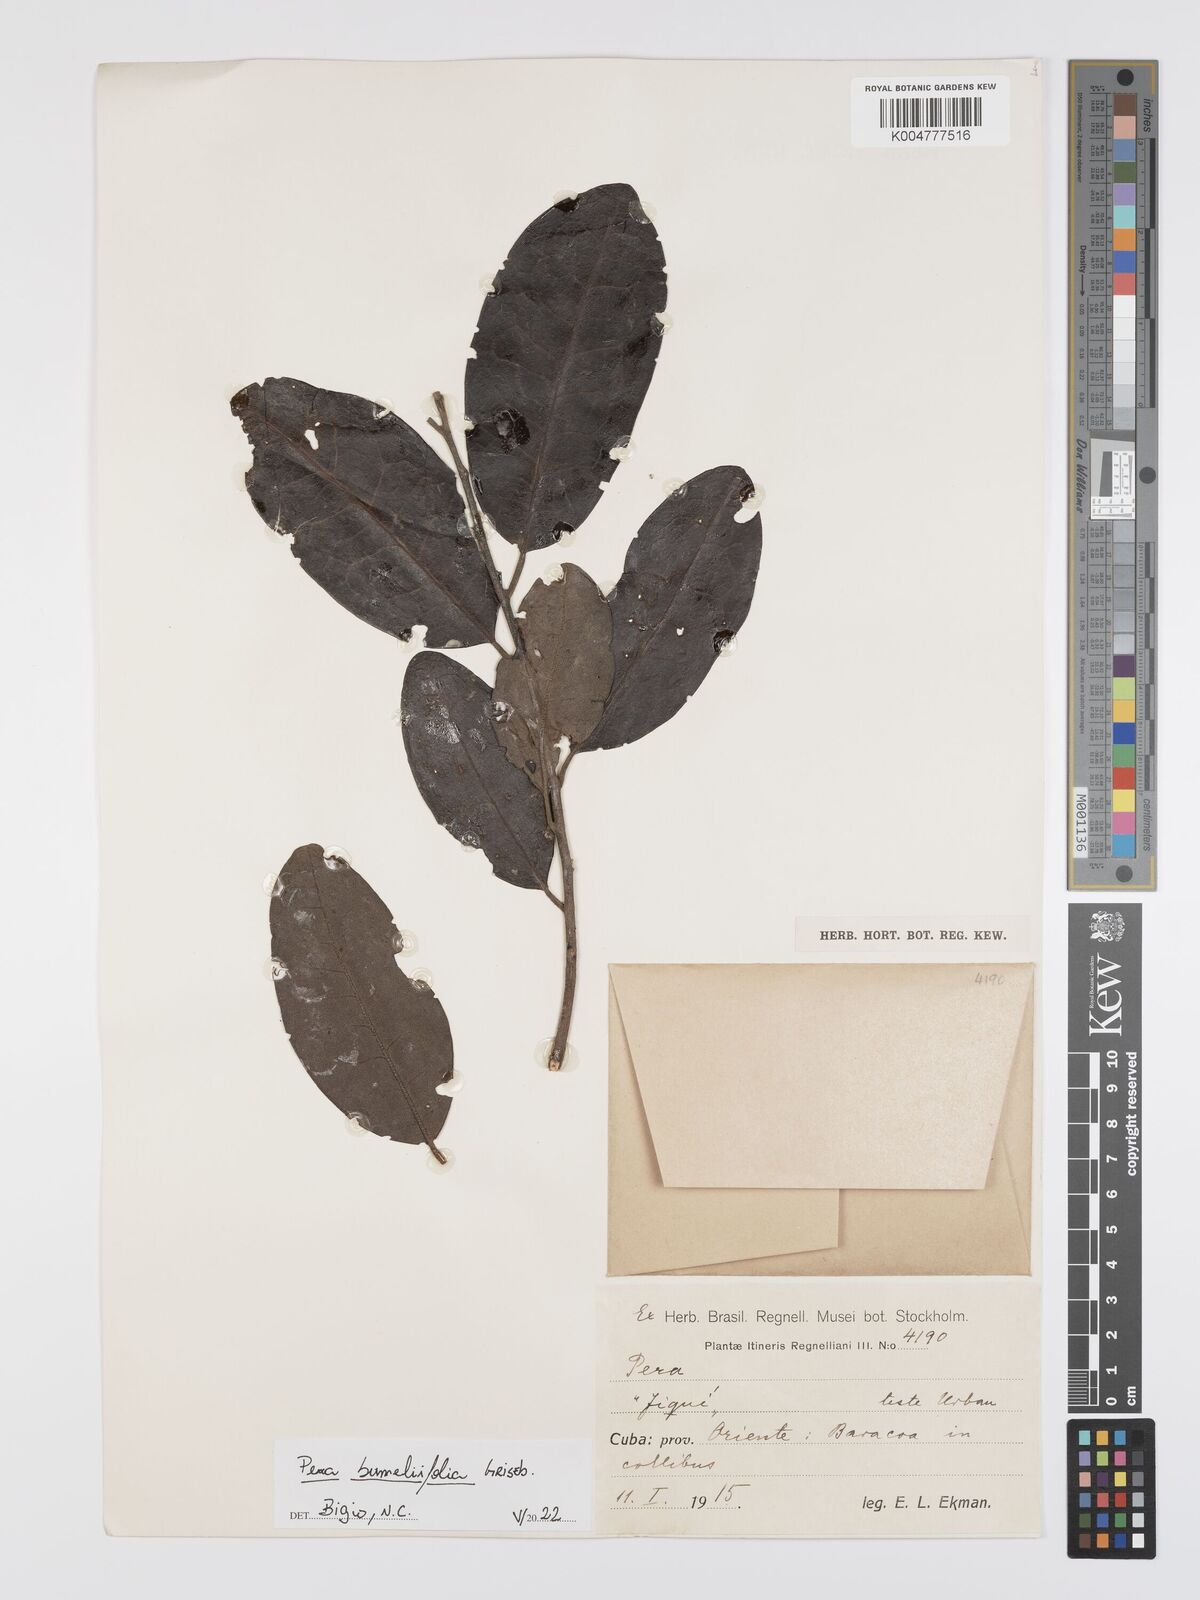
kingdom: Plantae
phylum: Tracheophyta
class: Magnoliopsida
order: Malpighiales
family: Peraceae
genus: Pera
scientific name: Pera
